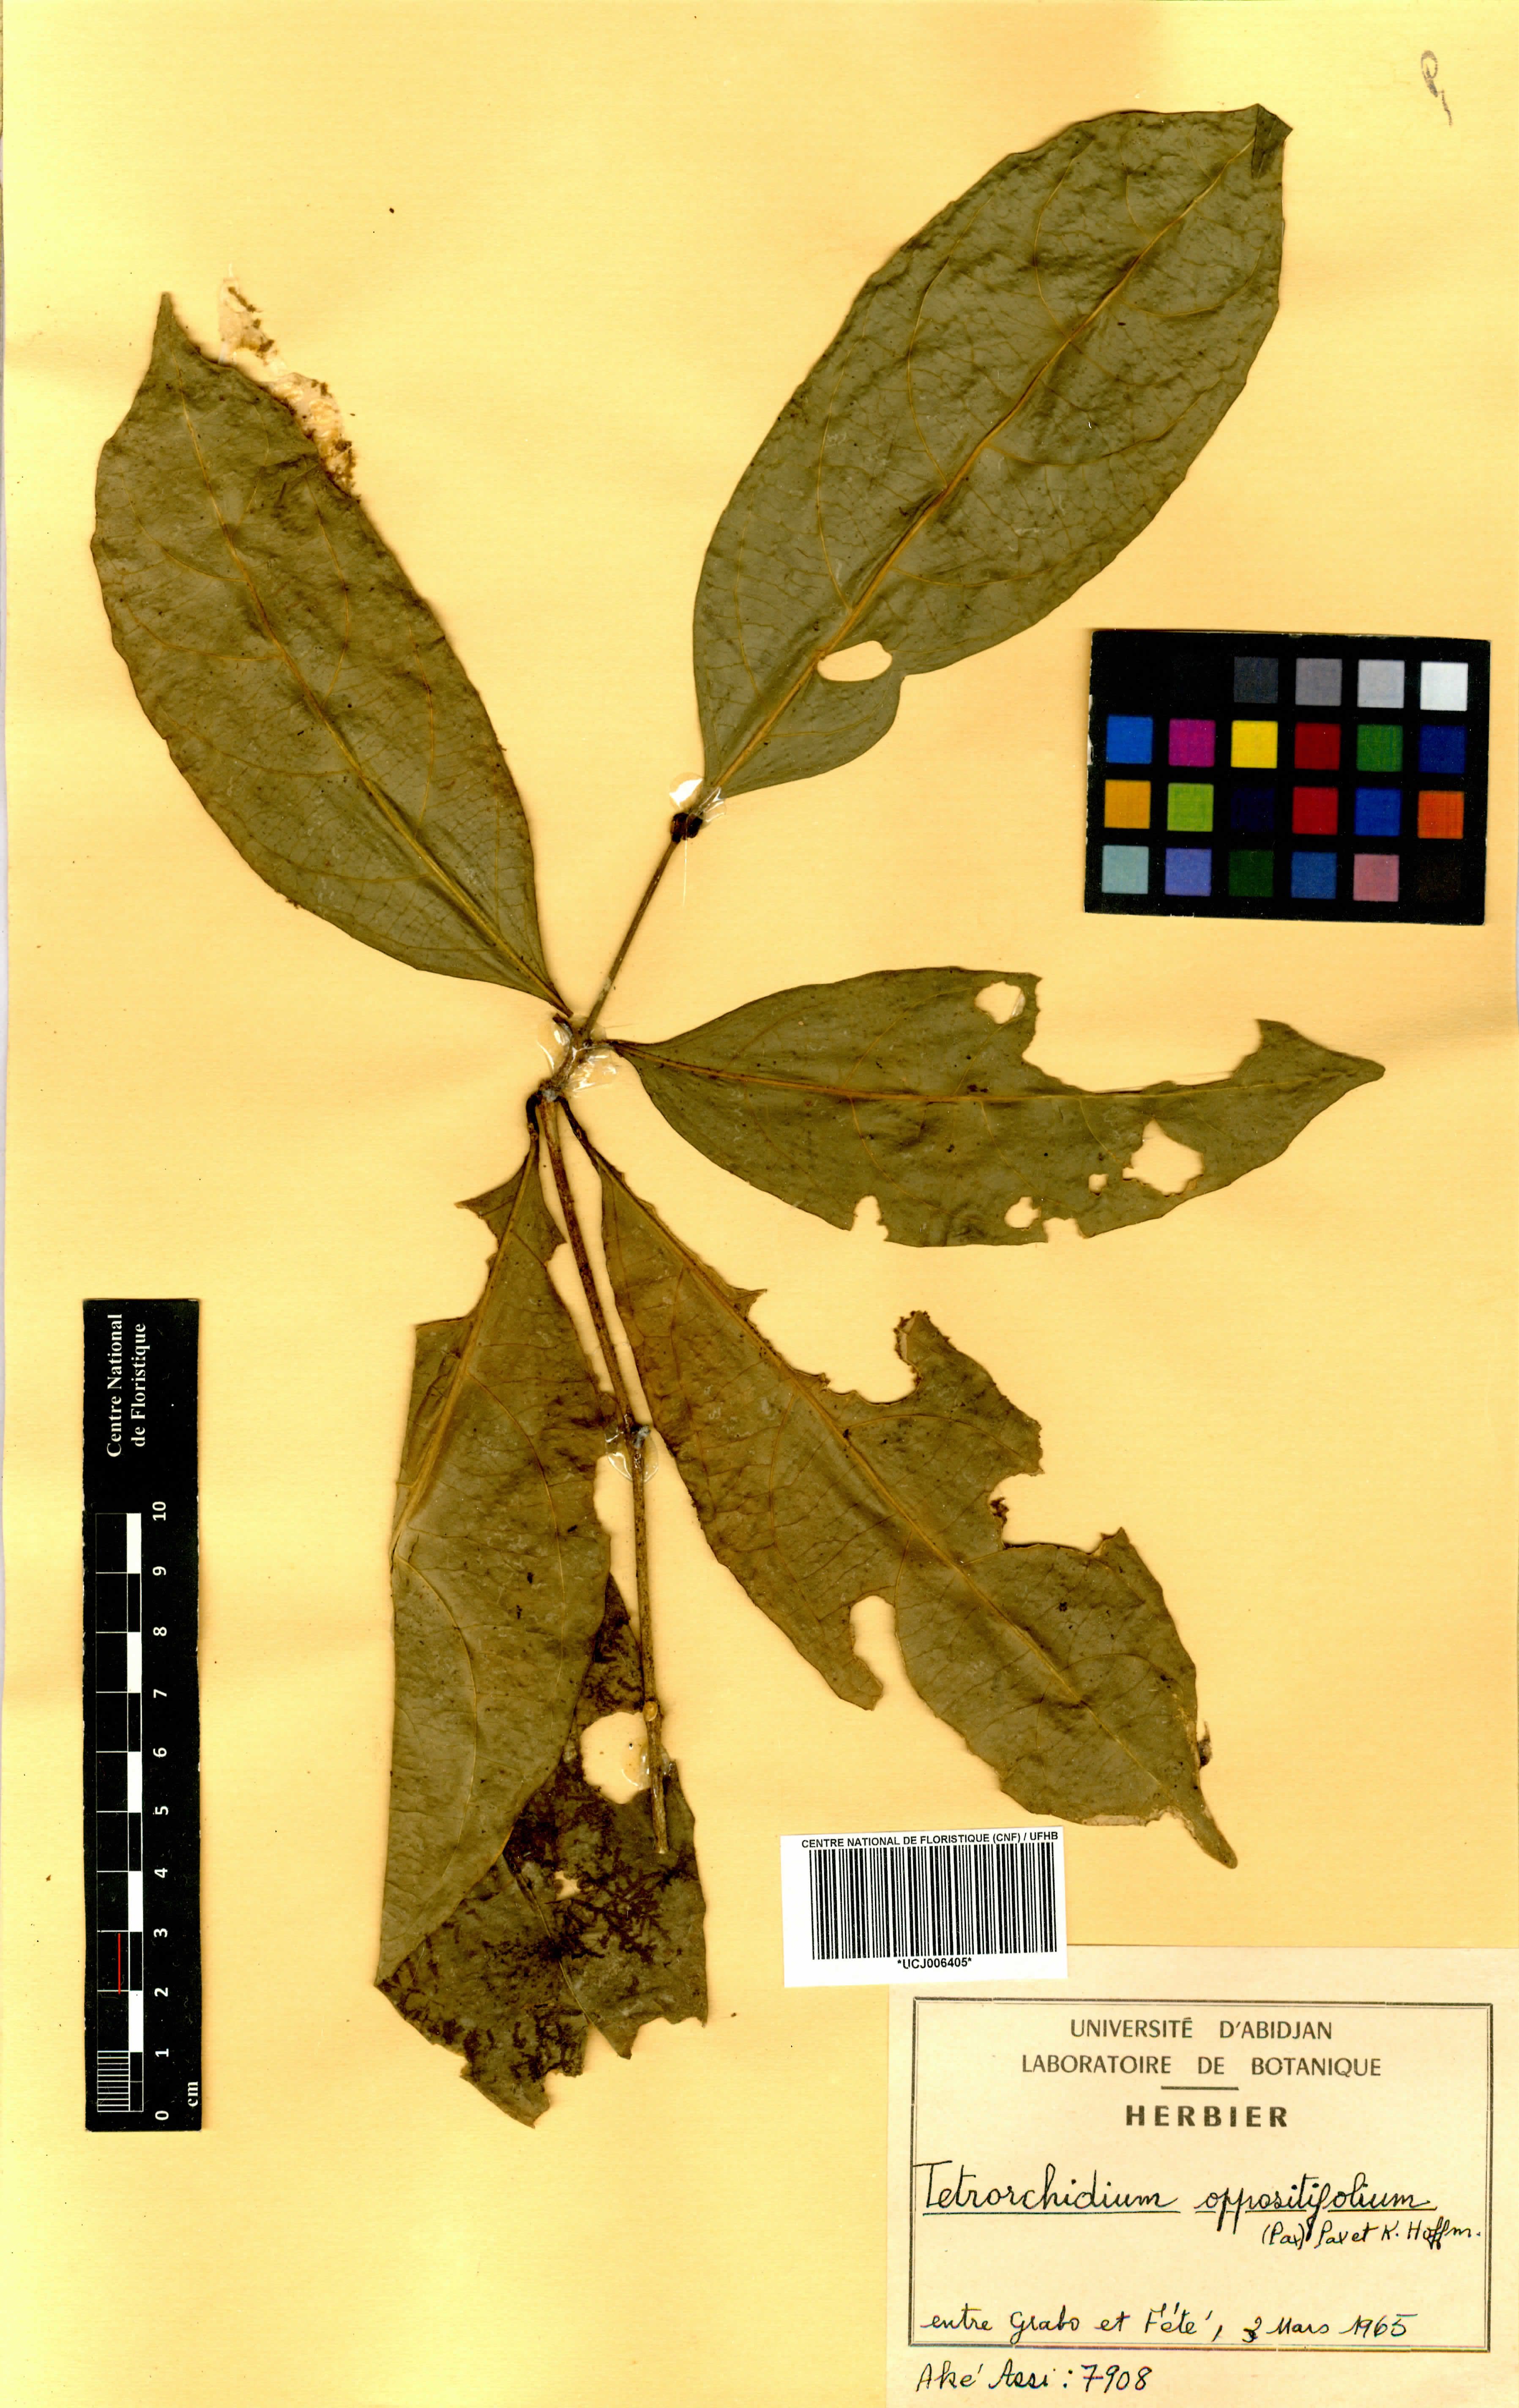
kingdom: Plantae
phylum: Tracheophyta
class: Magnoliopsida
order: Malpighiales
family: Euphorbiaceae
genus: Tetrorchidium
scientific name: Tetrorchidium oppositifolium
